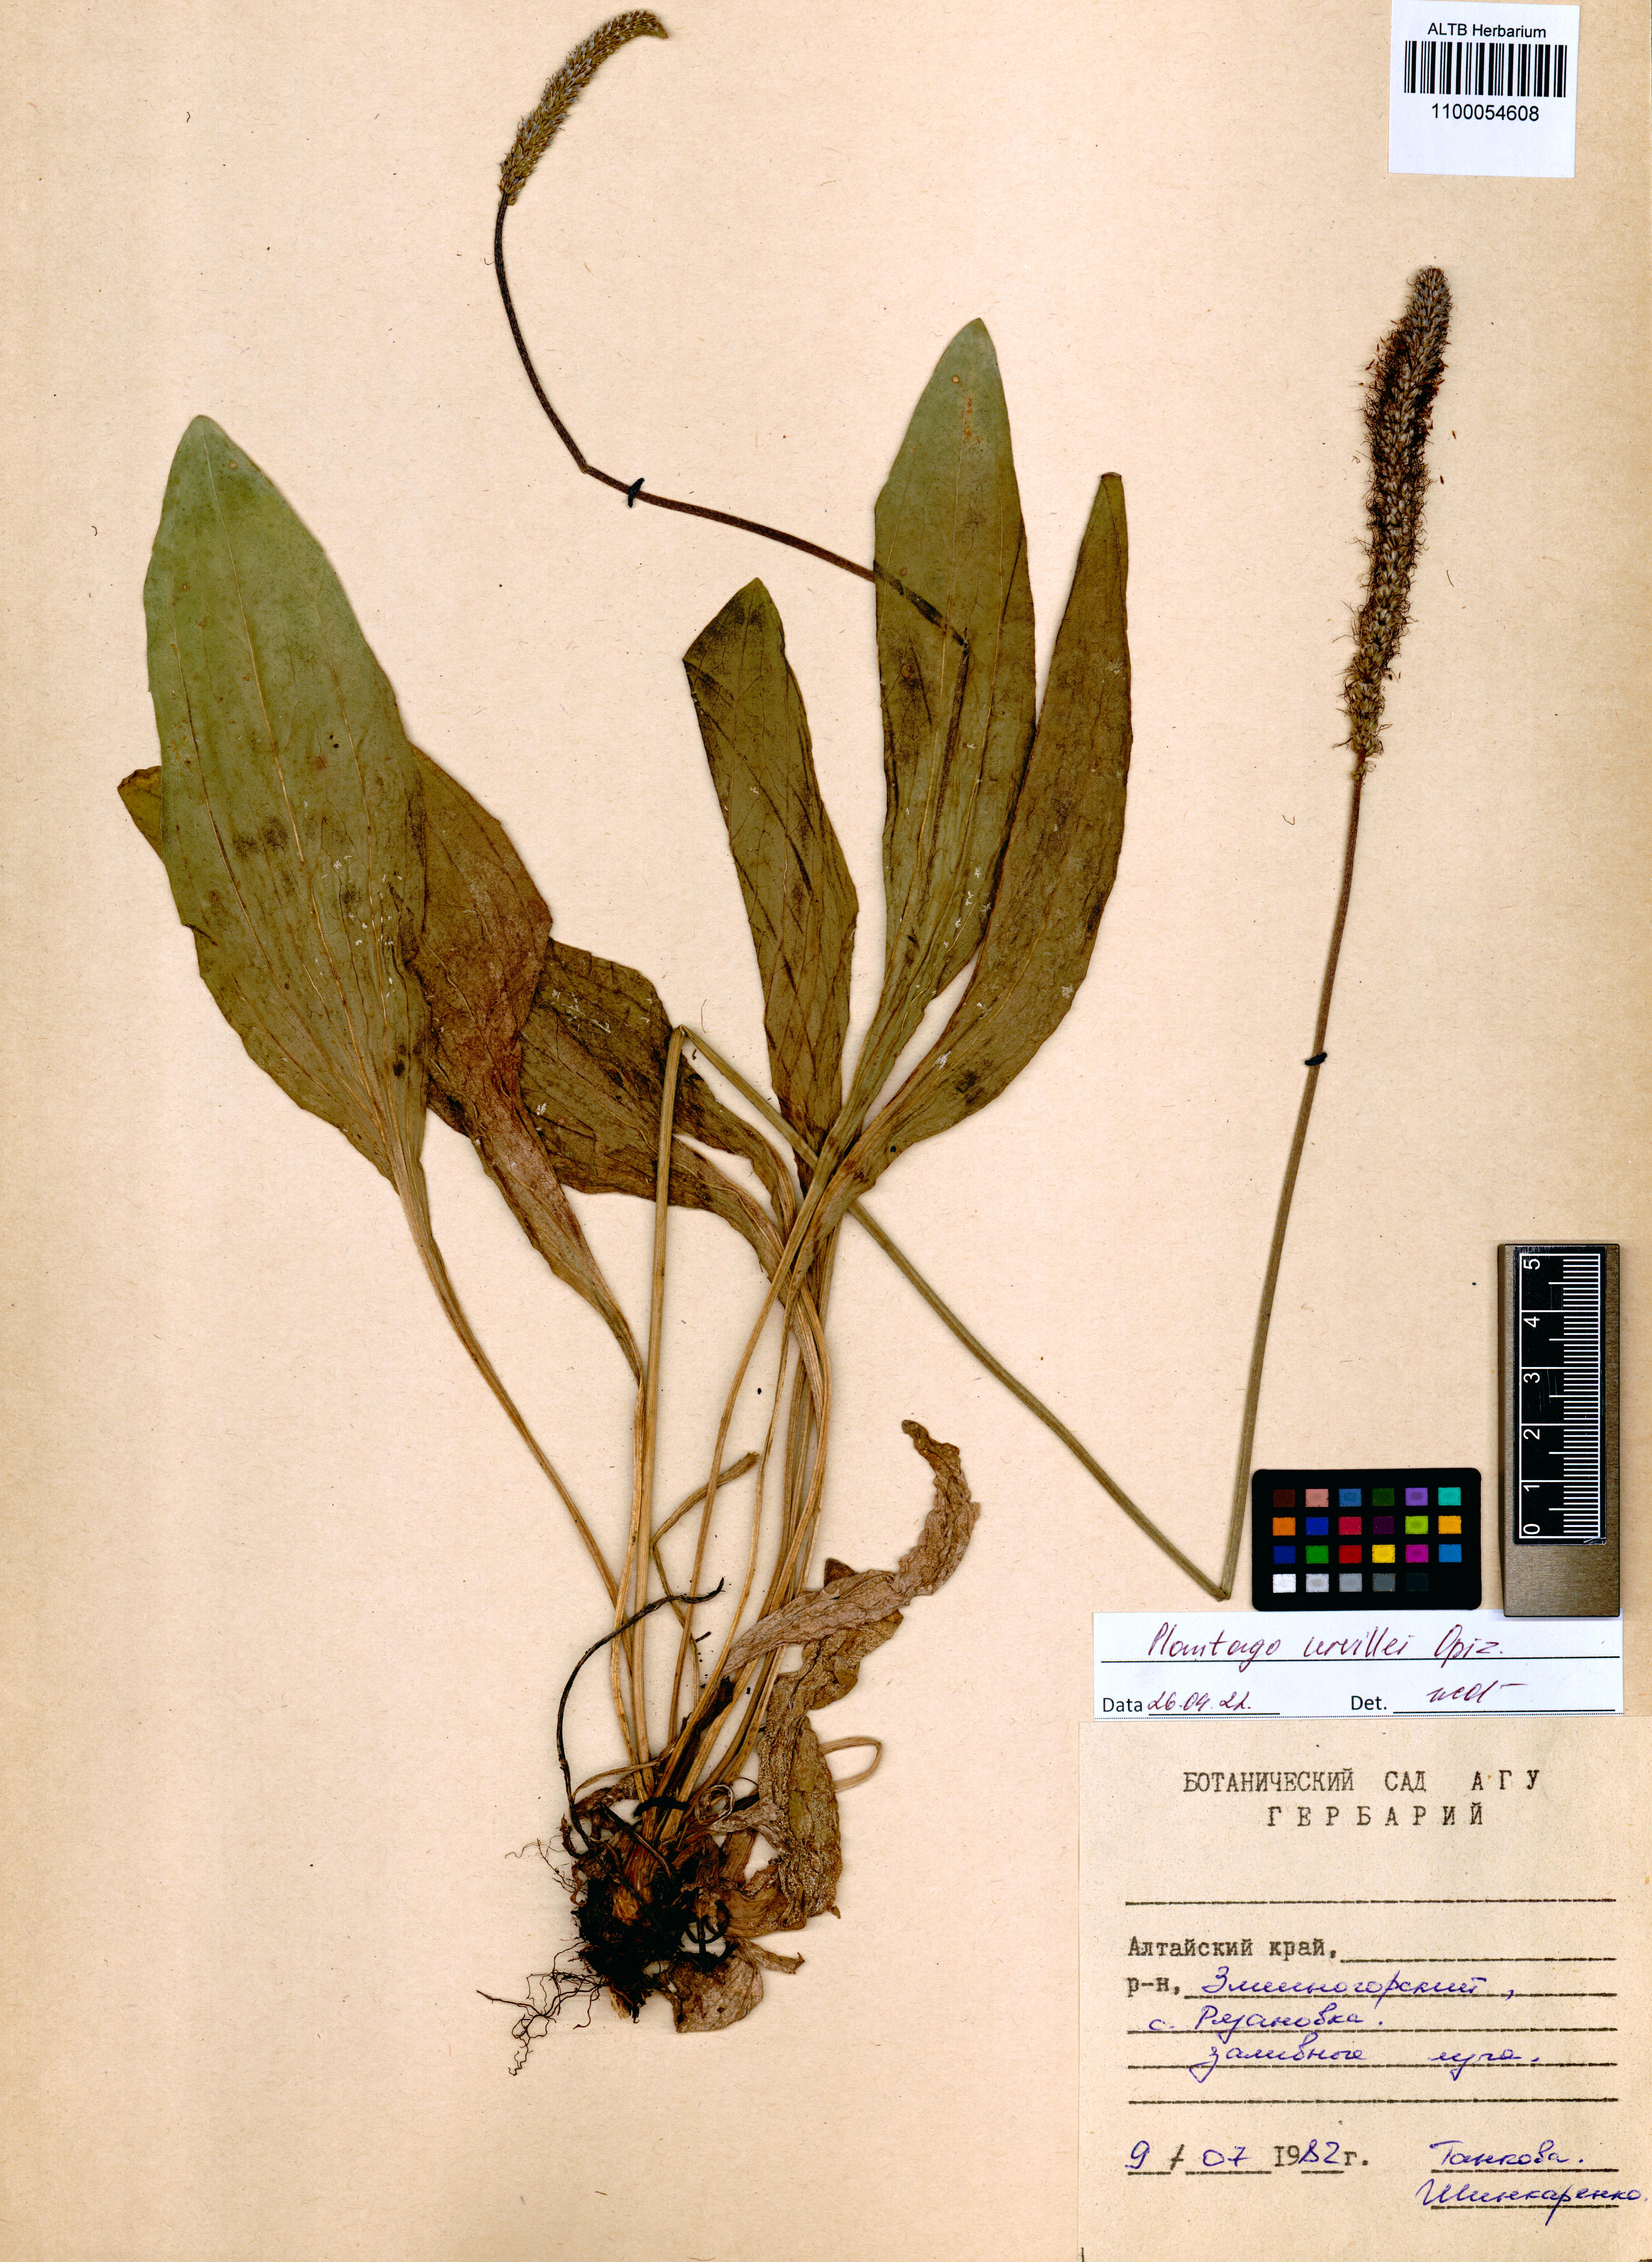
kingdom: Plantae
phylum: Tracheophyta
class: Magnoliopsida
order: Lamiales
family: Plantaginaceae
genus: Plantago
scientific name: Plantago urvillei
